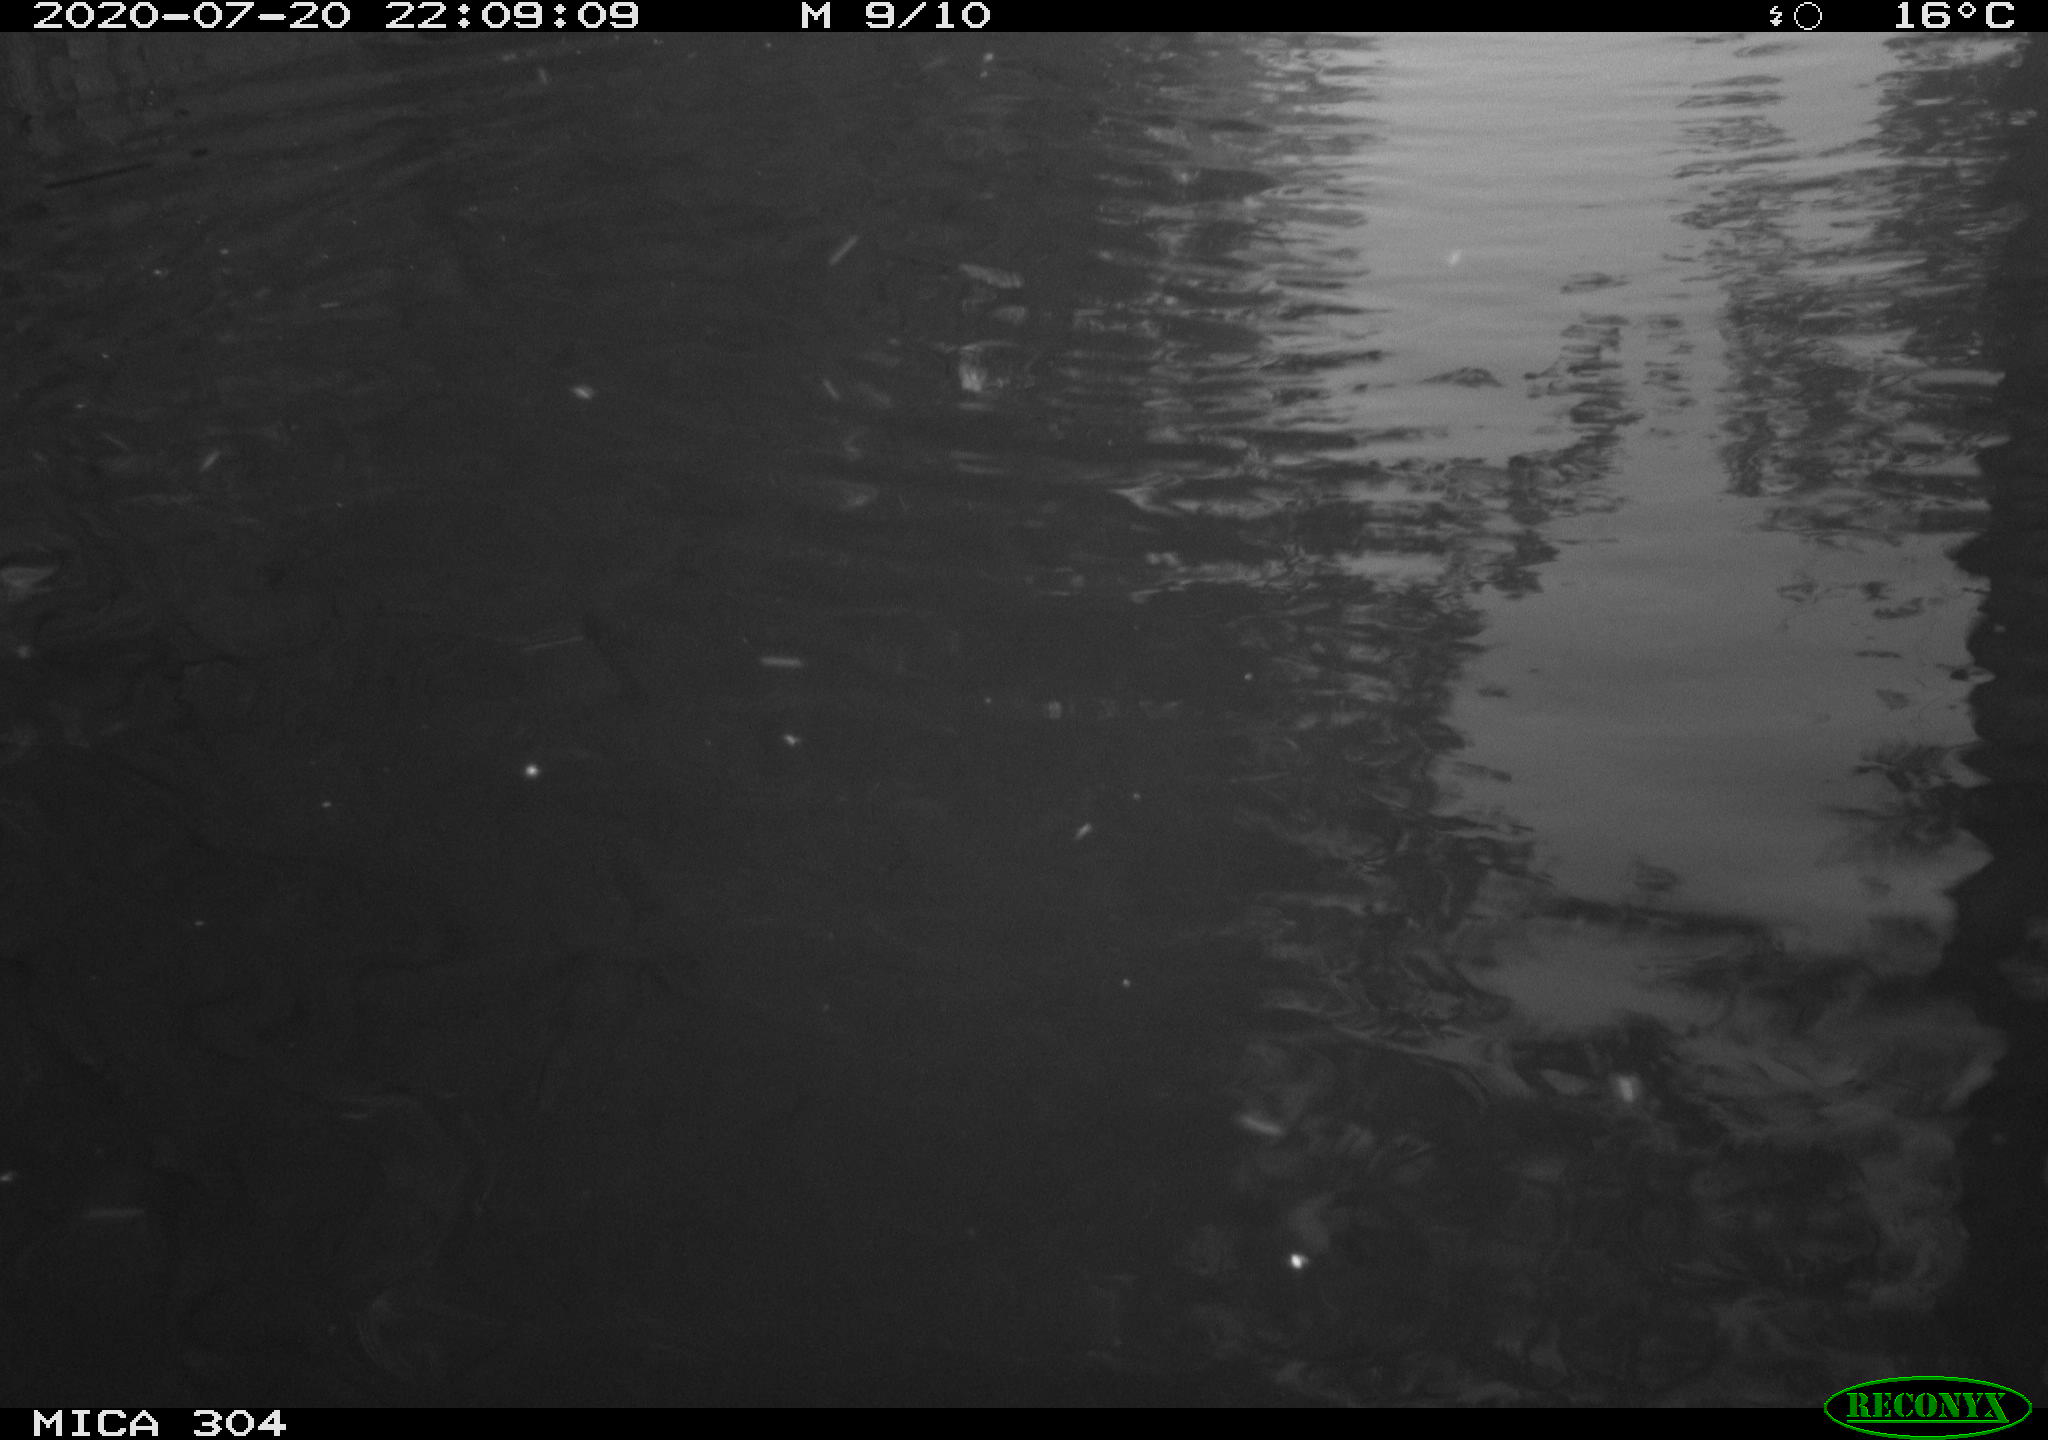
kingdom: Animalia
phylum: Chordata
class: Mammalia
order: Rodentia
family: Cricetidae
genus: Ondatra
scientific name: Ondatra zibethicus
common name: Muskrat
